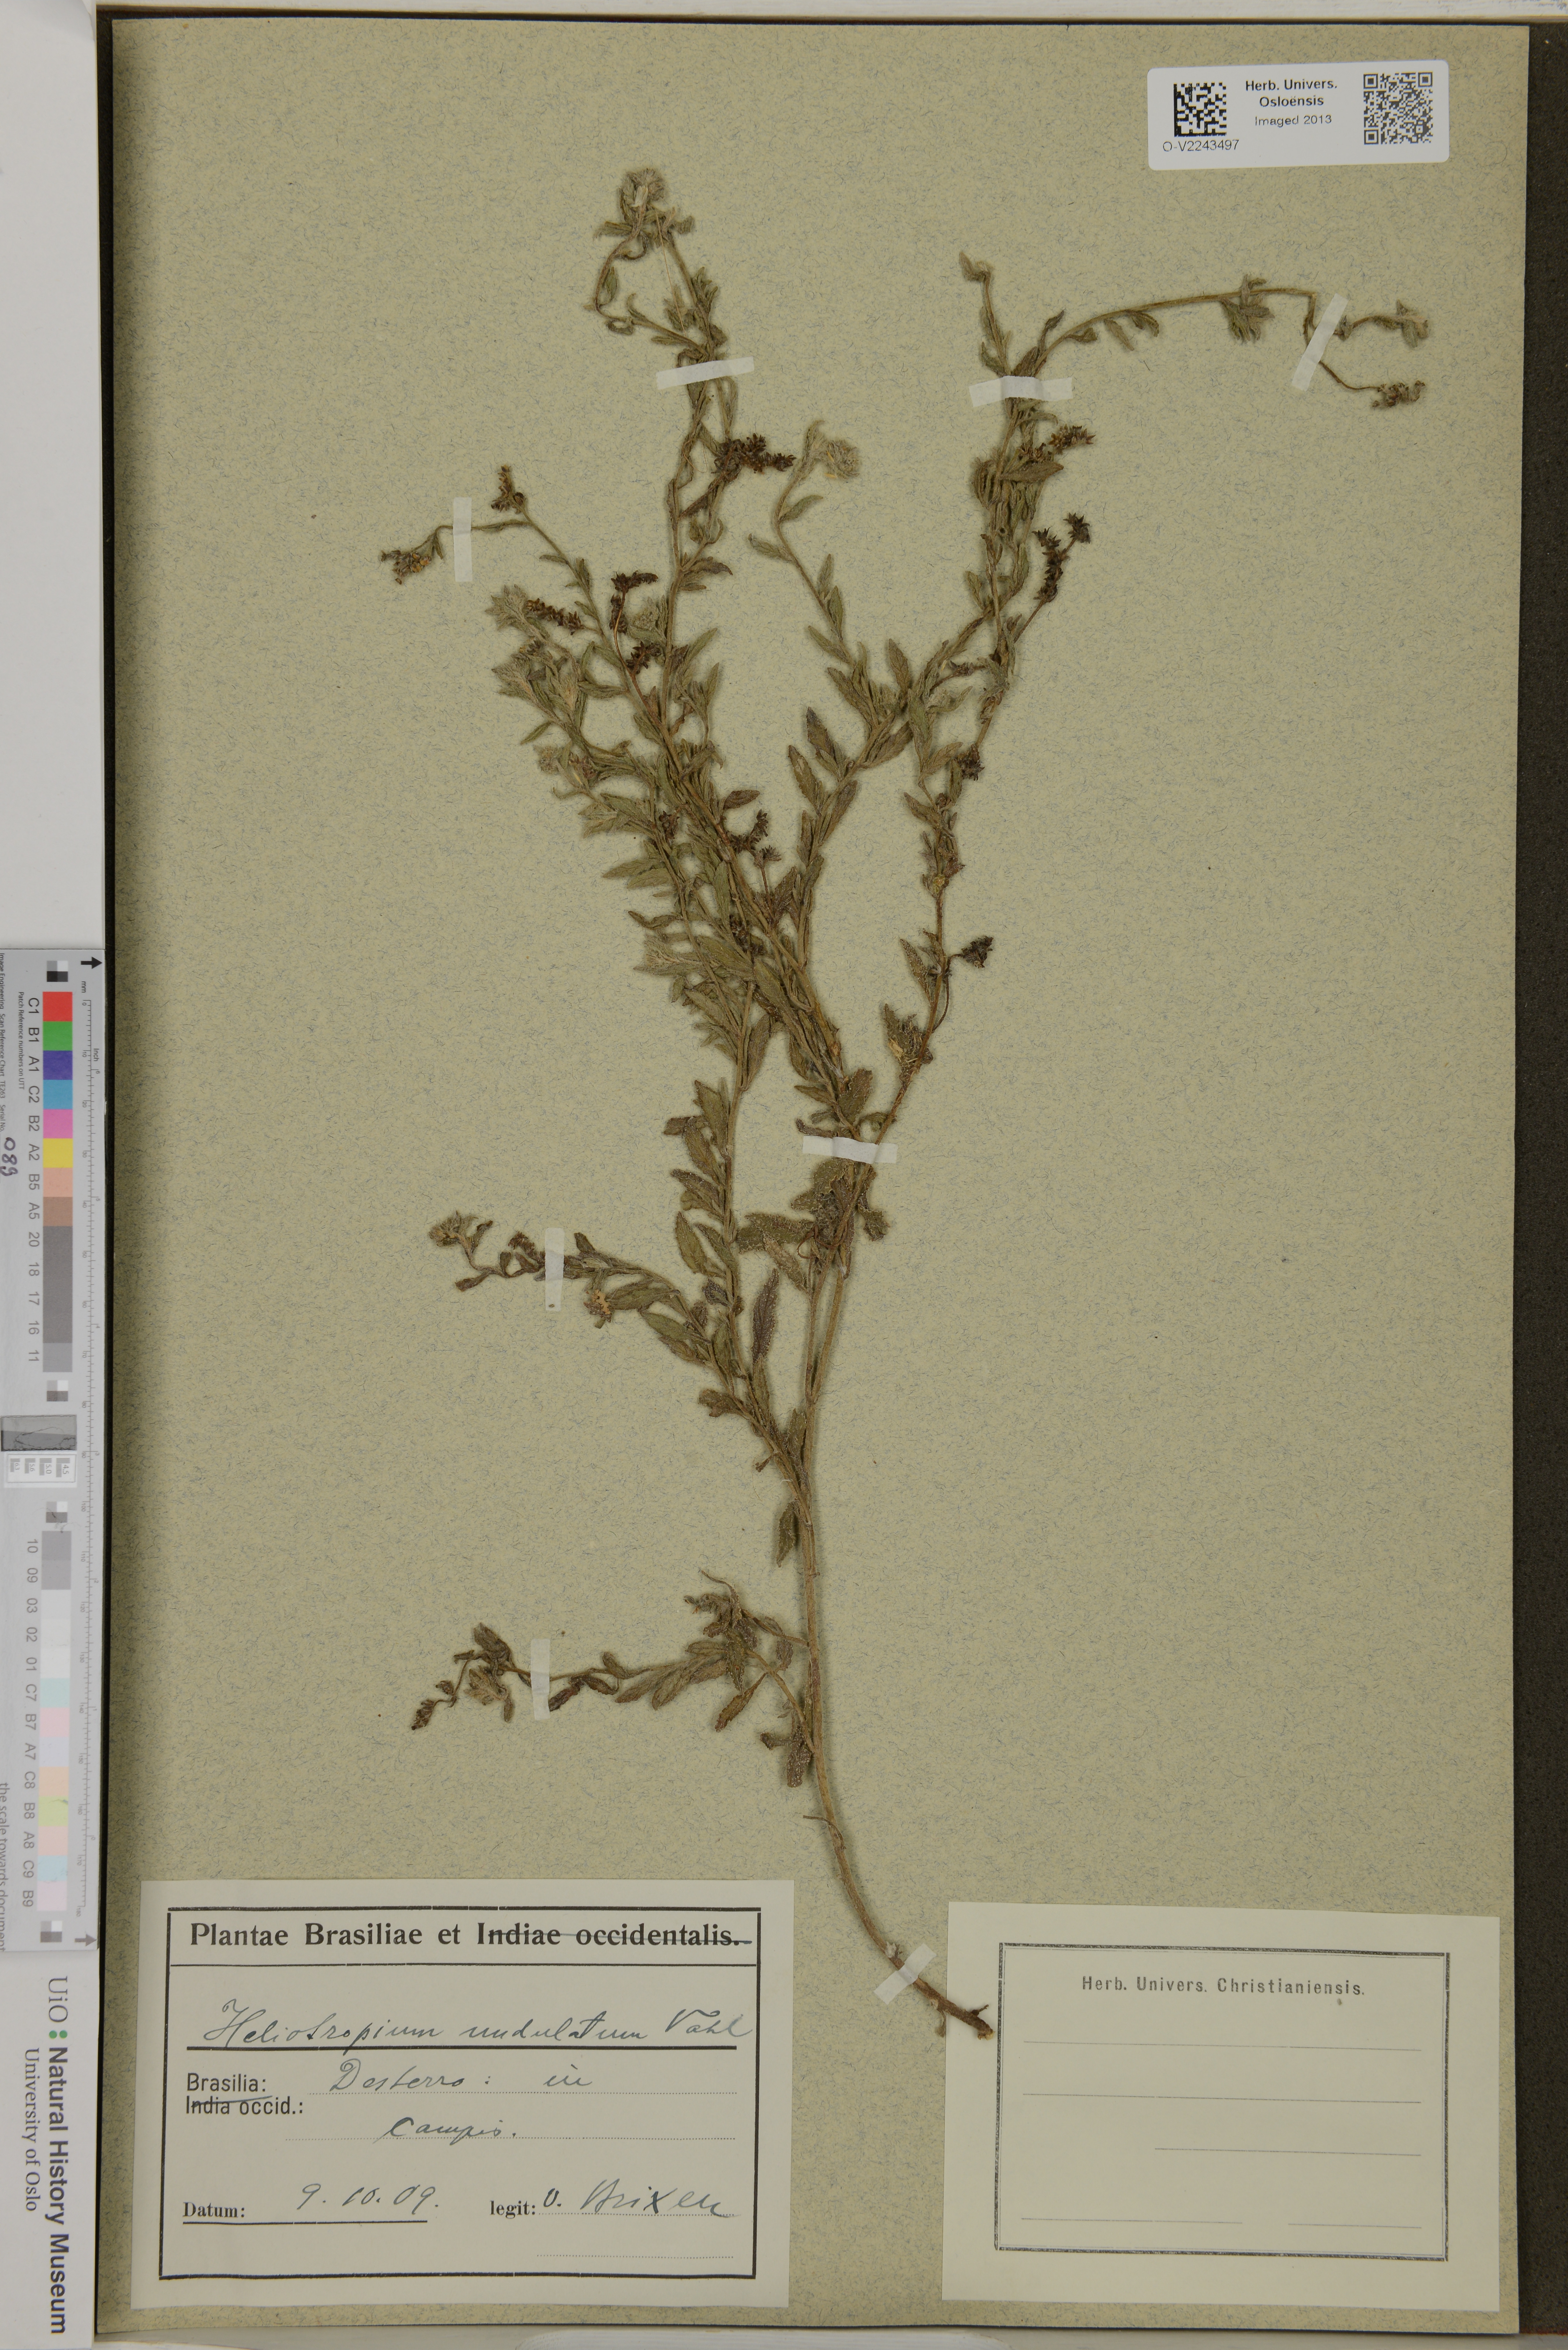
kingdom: Plantae
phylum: Tracheophyta
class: Magnoliopsida
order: Boraginales
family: Heliotropiaceae
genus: Heliotropium
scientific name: Heliotropium bacciferum
